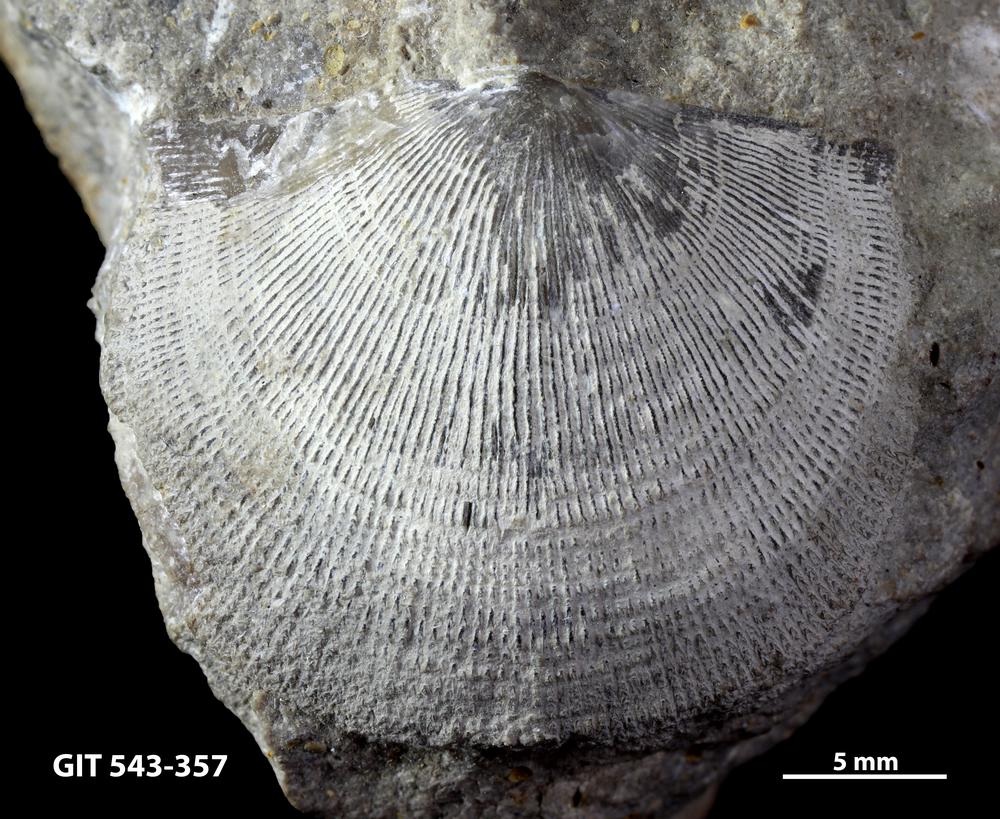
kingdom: Animalia
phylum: Brachiopoda
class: Rhynchonellata
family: Clitambonitidae
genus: Clitambonites
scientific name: Clitambonites adscendens
